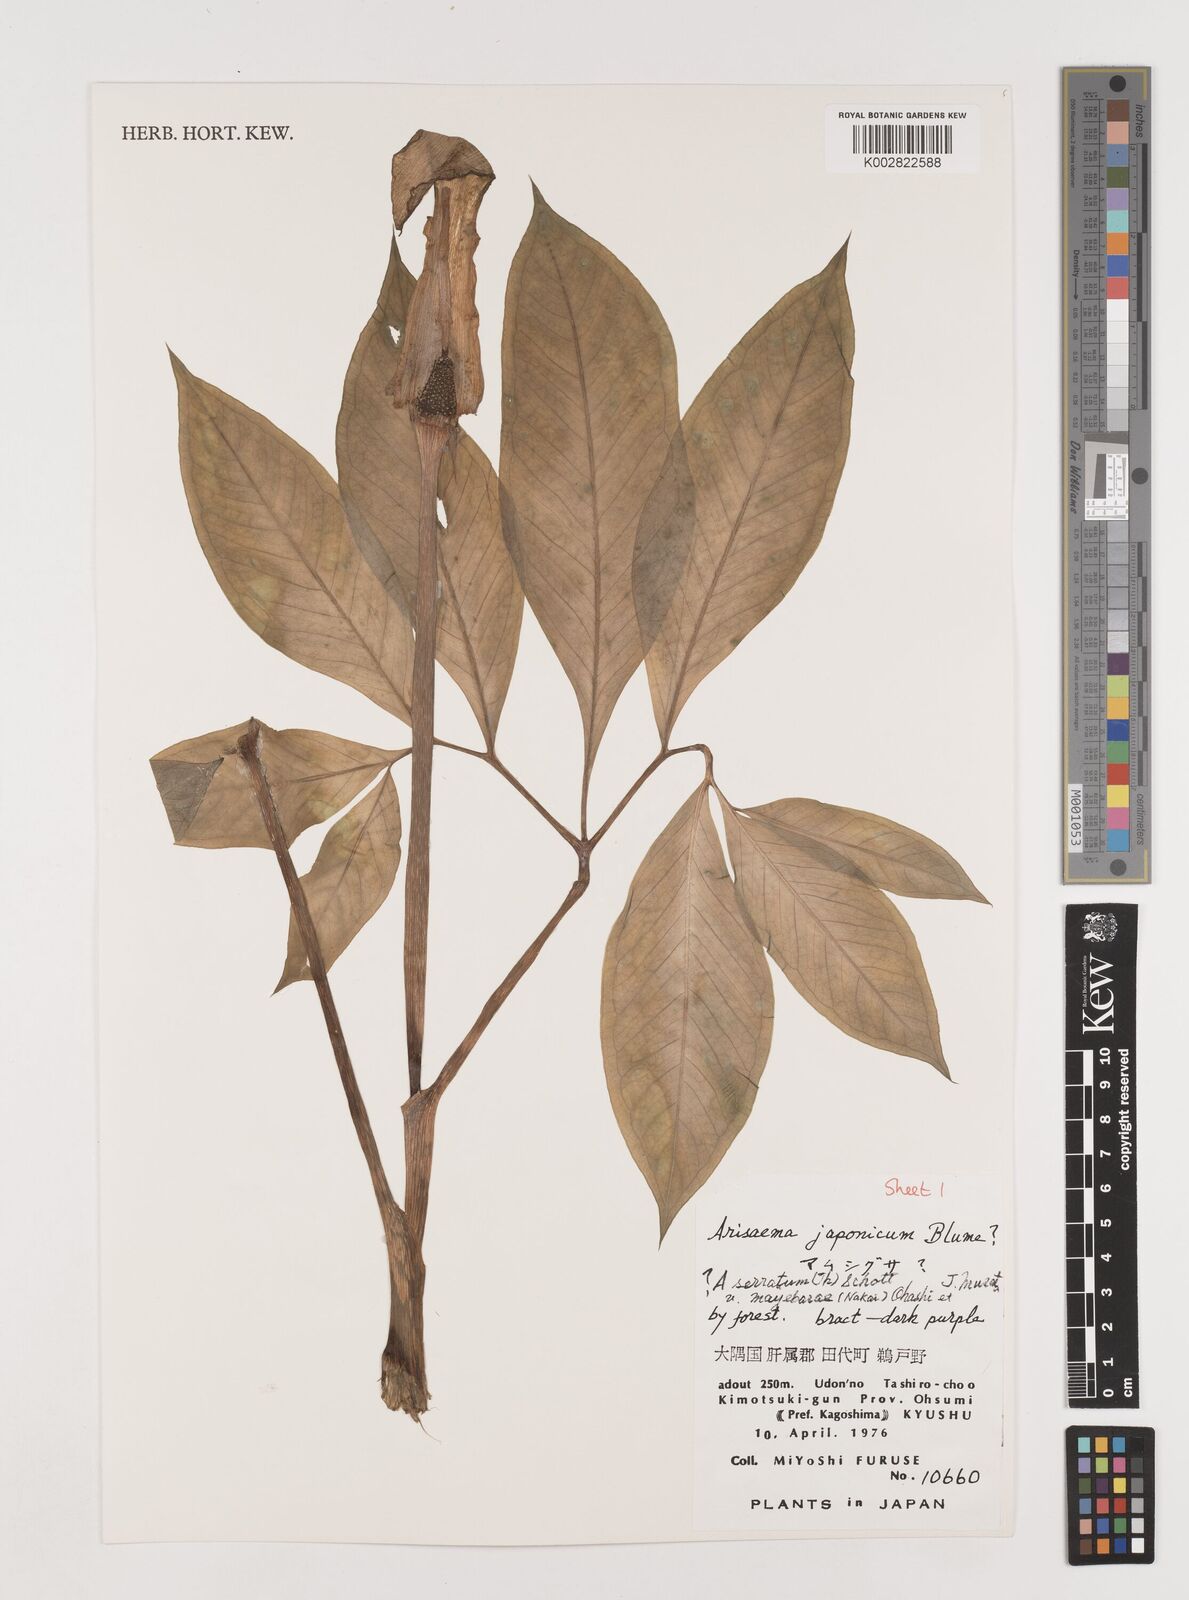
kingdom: Plantae
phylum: Tracheophyta
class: Liliopsida
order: Alismatales
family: Araceae
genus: Arisaema
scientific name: Arisaema serratum
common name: Japanese arisaema
